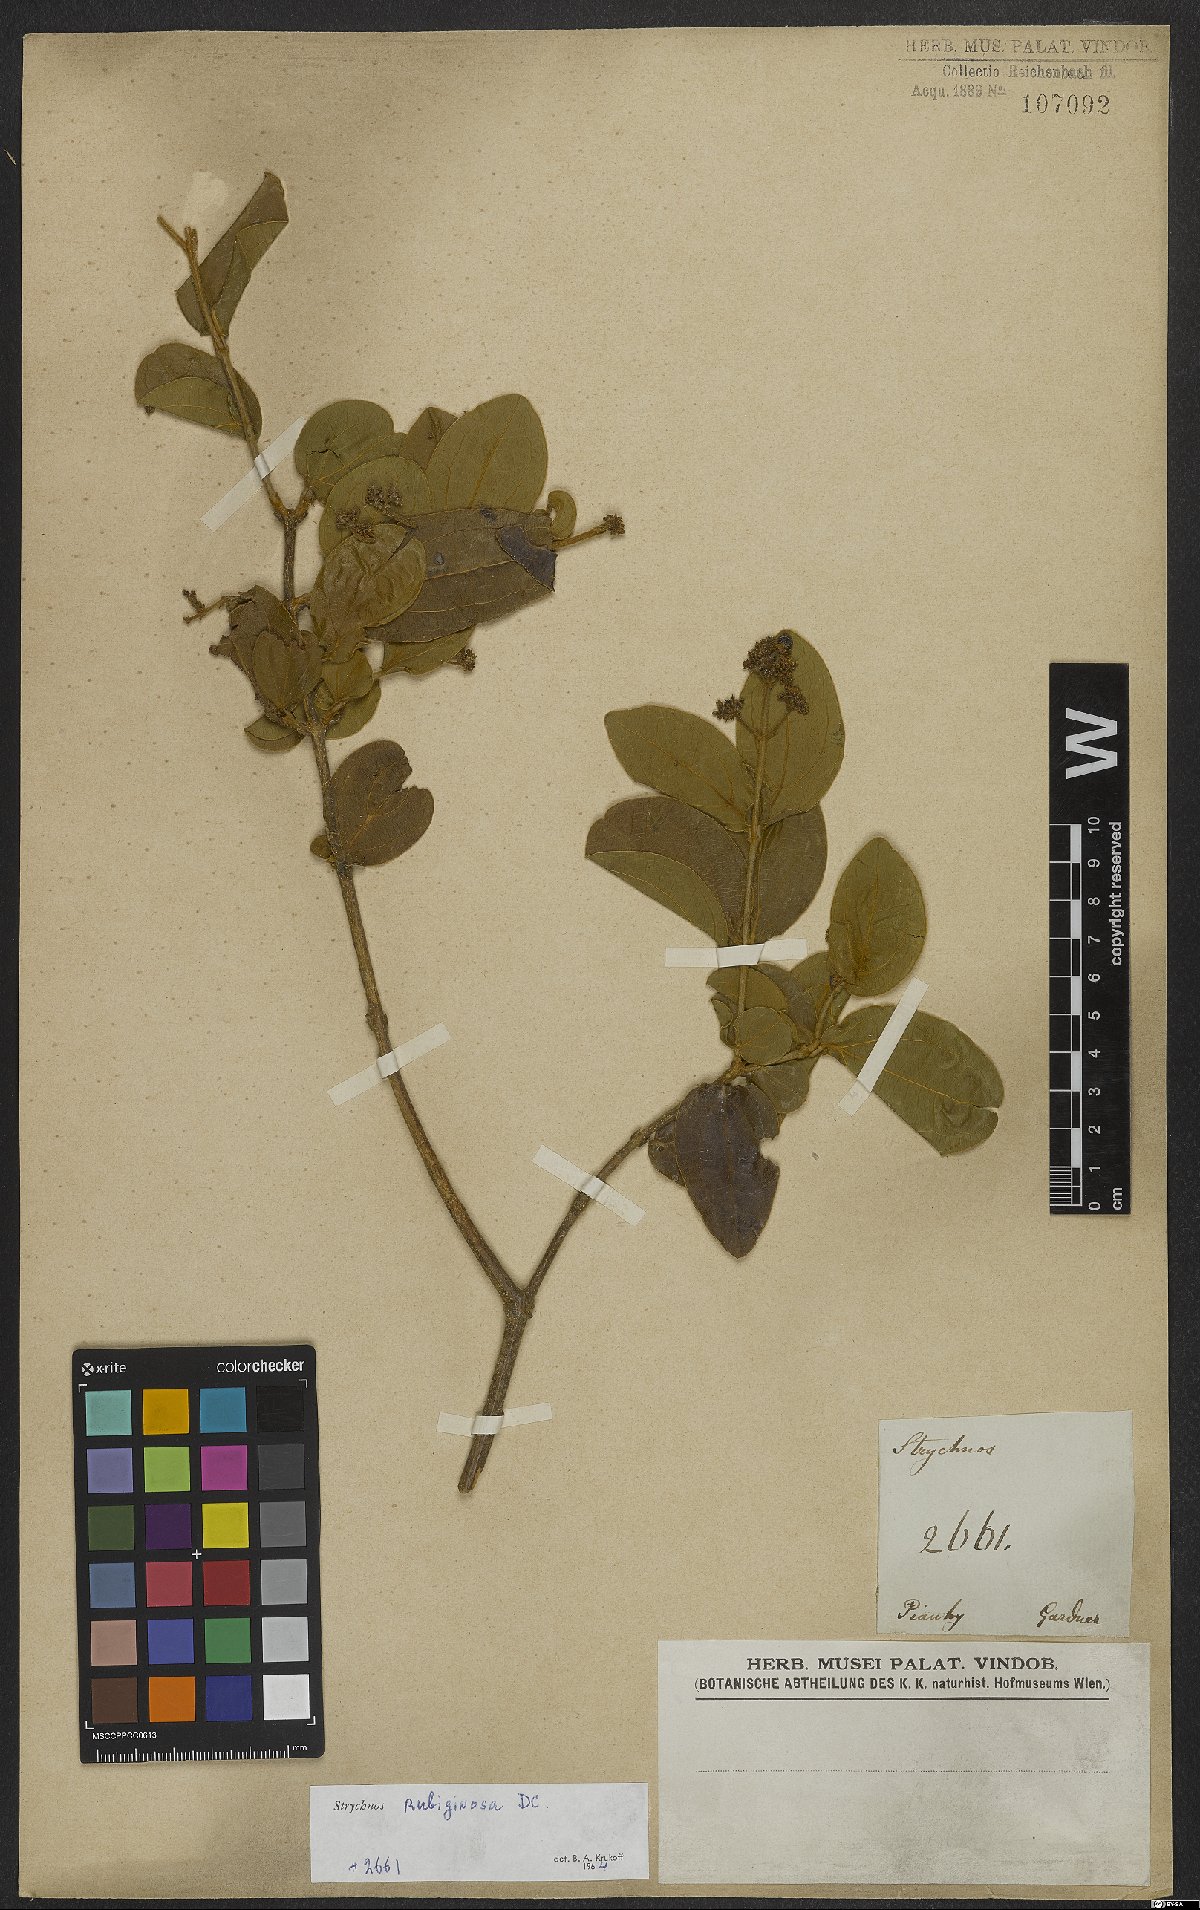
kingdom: Plantae
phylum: Tracheophyta
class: Magnoliopsida
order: Gentianales
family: Loganiaceae
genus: Strychnos
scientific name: Strychnos rubiginosa
